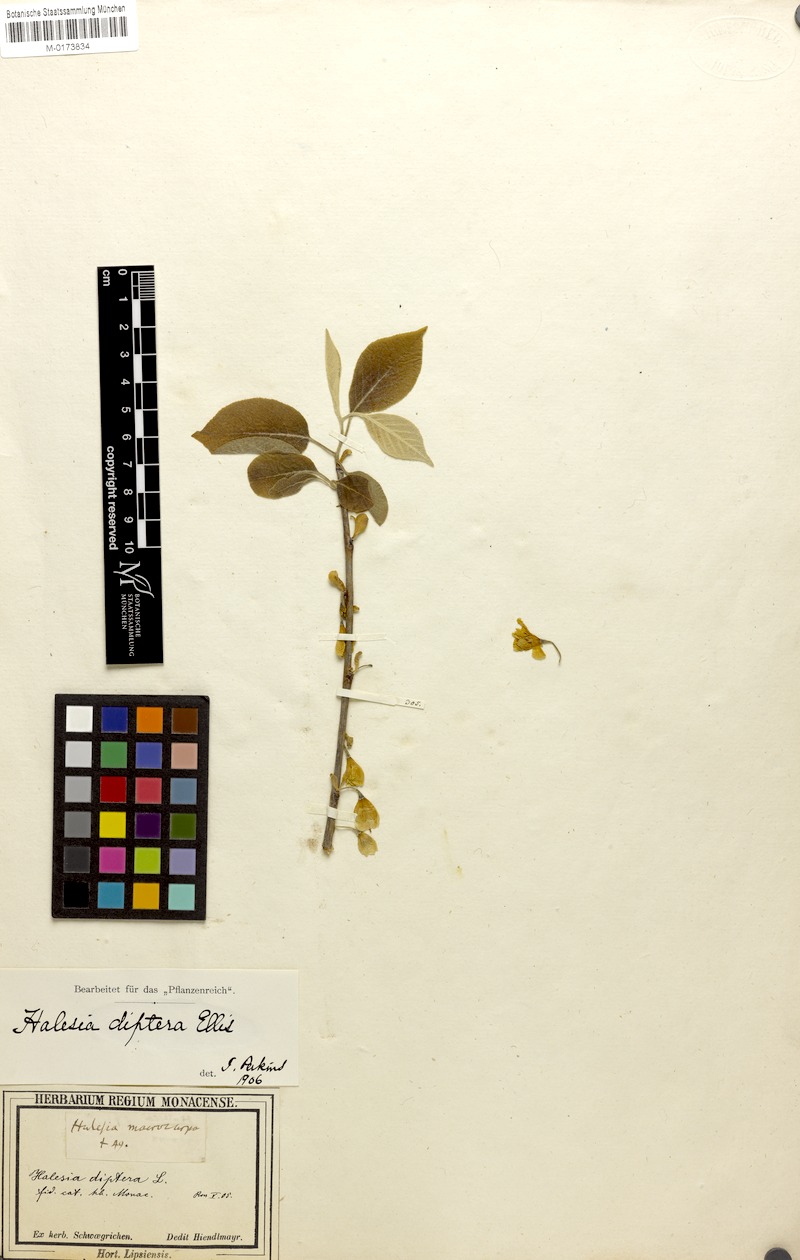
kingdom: Plantae
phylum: Tracheophyta
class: Magnoliopsida
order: Ericales
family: Styracaceae
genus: Halesia
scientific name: Halesia diptera
